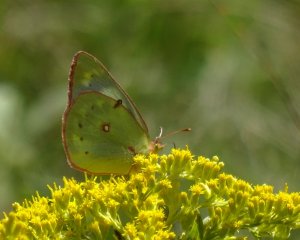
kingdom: Animalia
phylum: Arthropoda
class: Insecta
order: Lepidoptera
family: Pieridae
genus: Colias
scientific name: Colias philodice
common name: Clouded Sulphur
